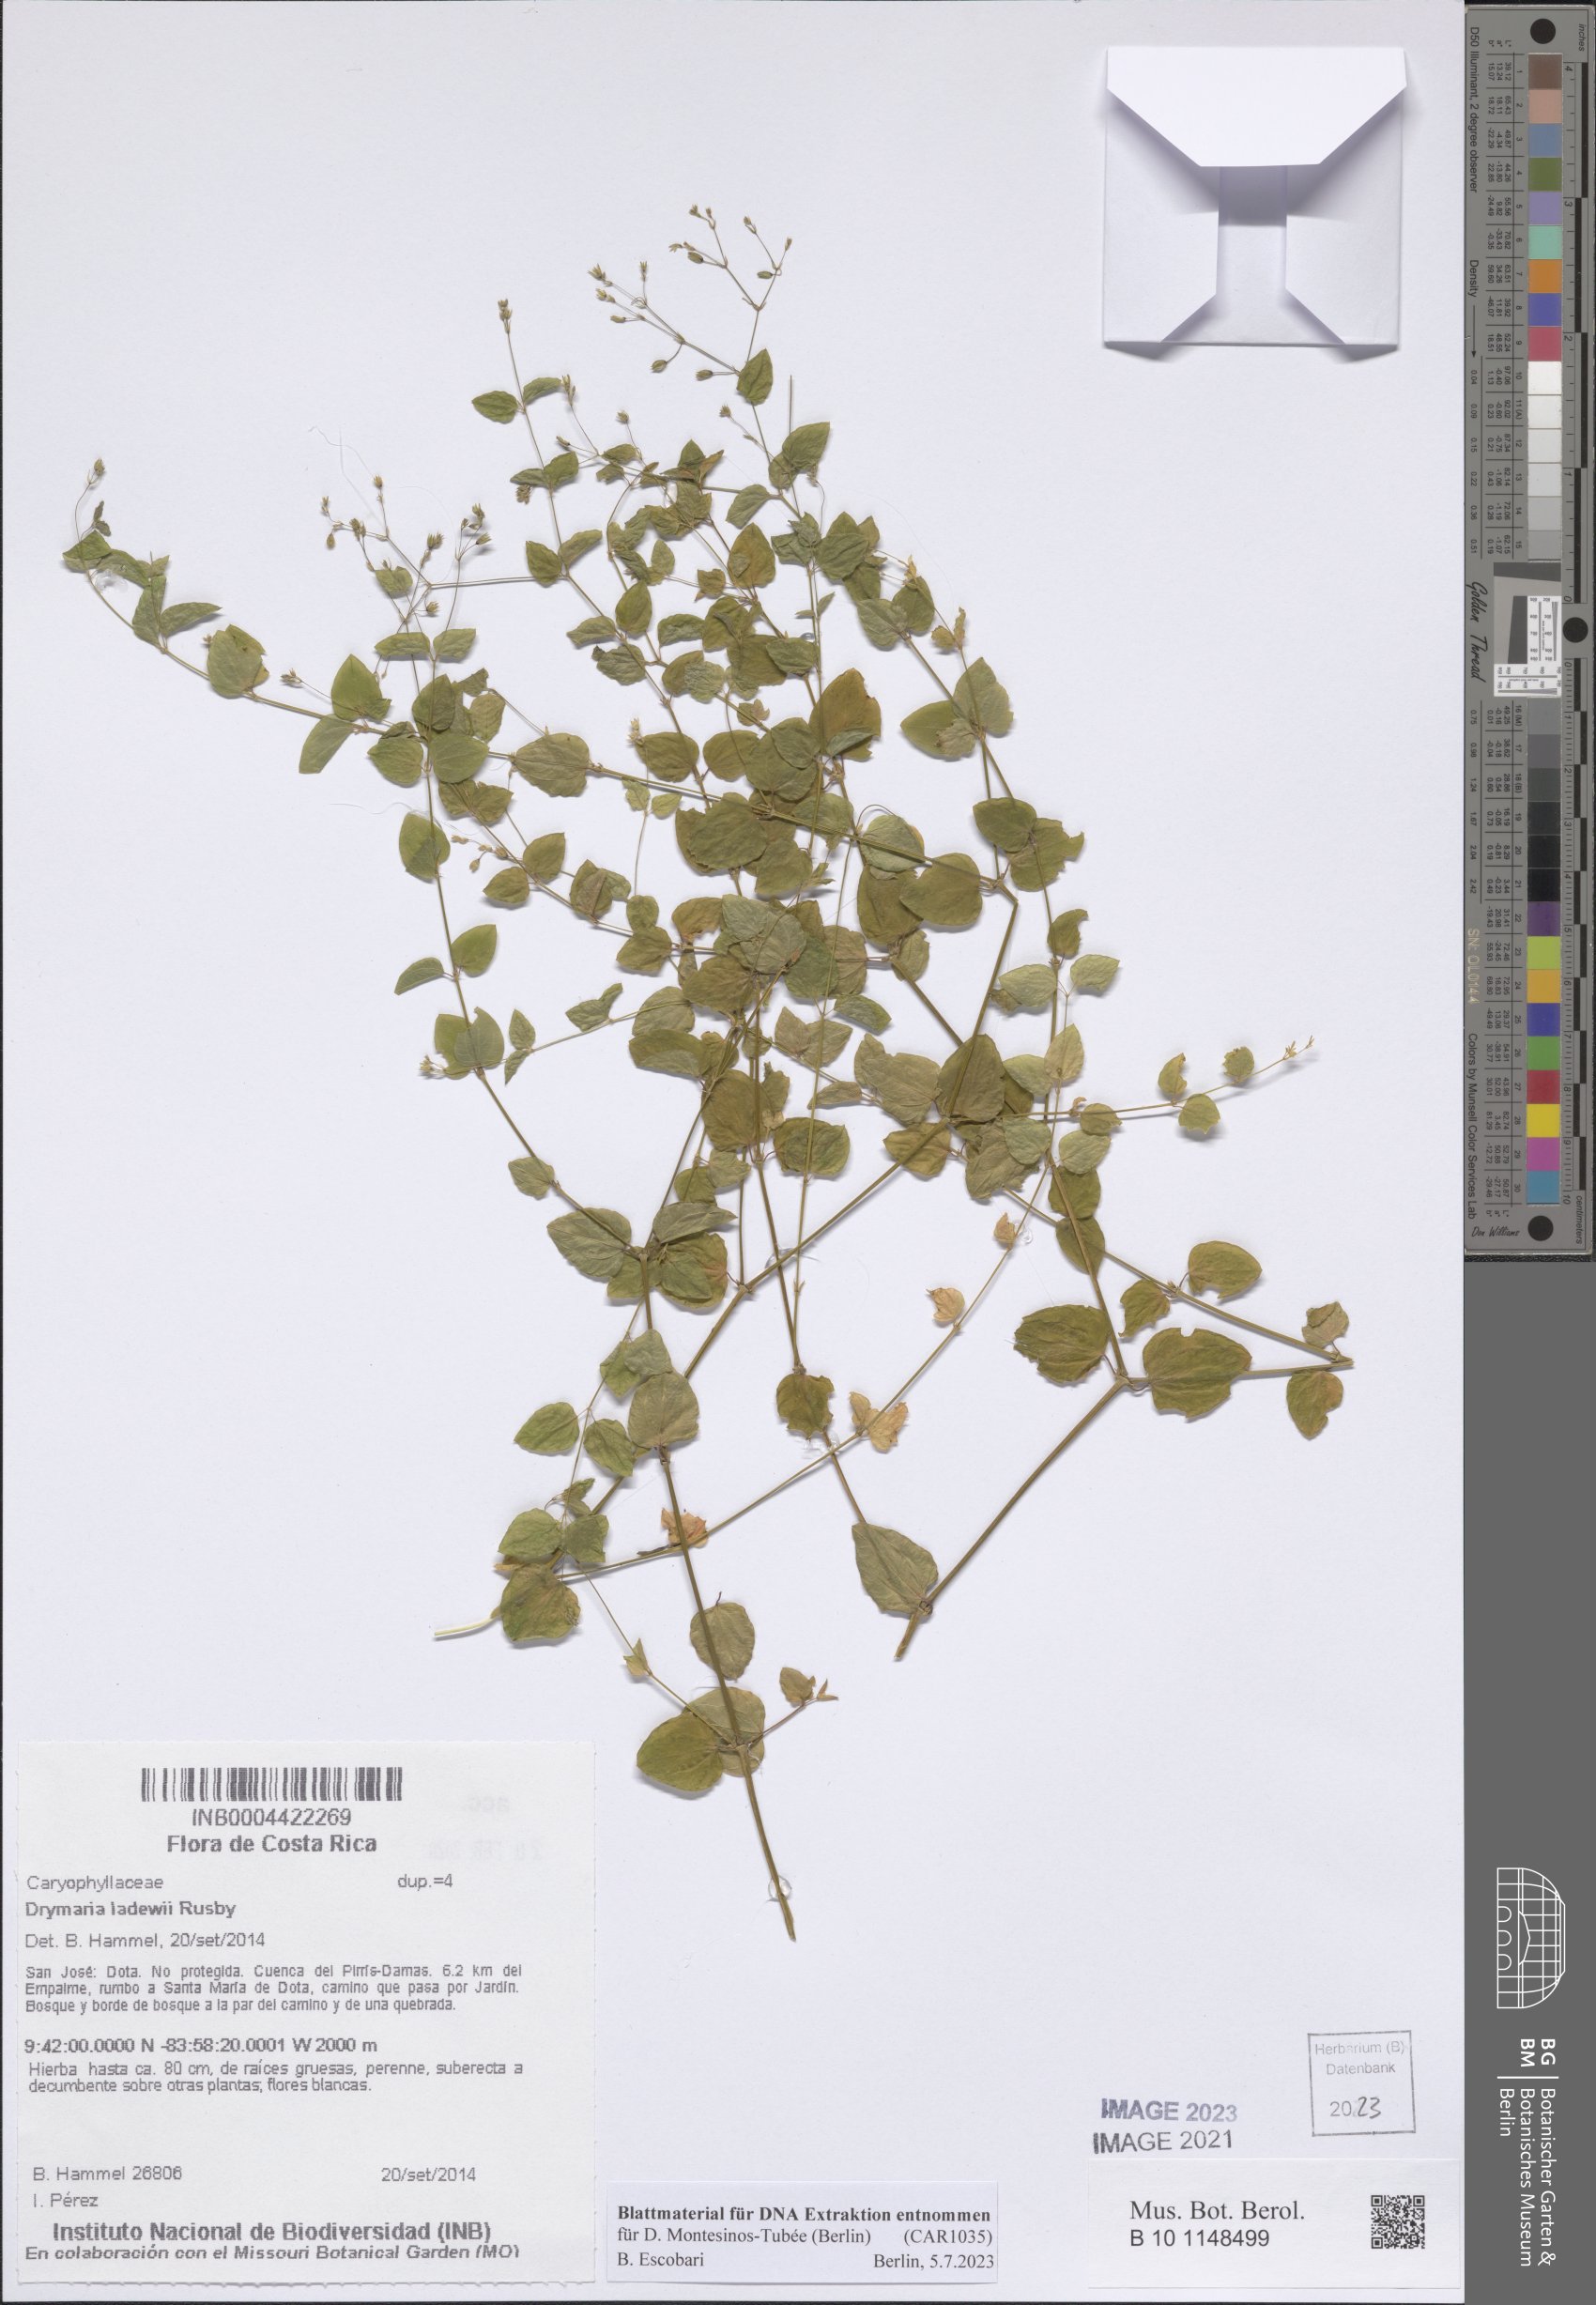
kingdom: Plantae
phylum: Tracheophyta
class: Magnoliopsida
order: Caryophyllales
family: Caryophyllaceae
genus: Drymaria
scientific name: Drymaria ladewii
